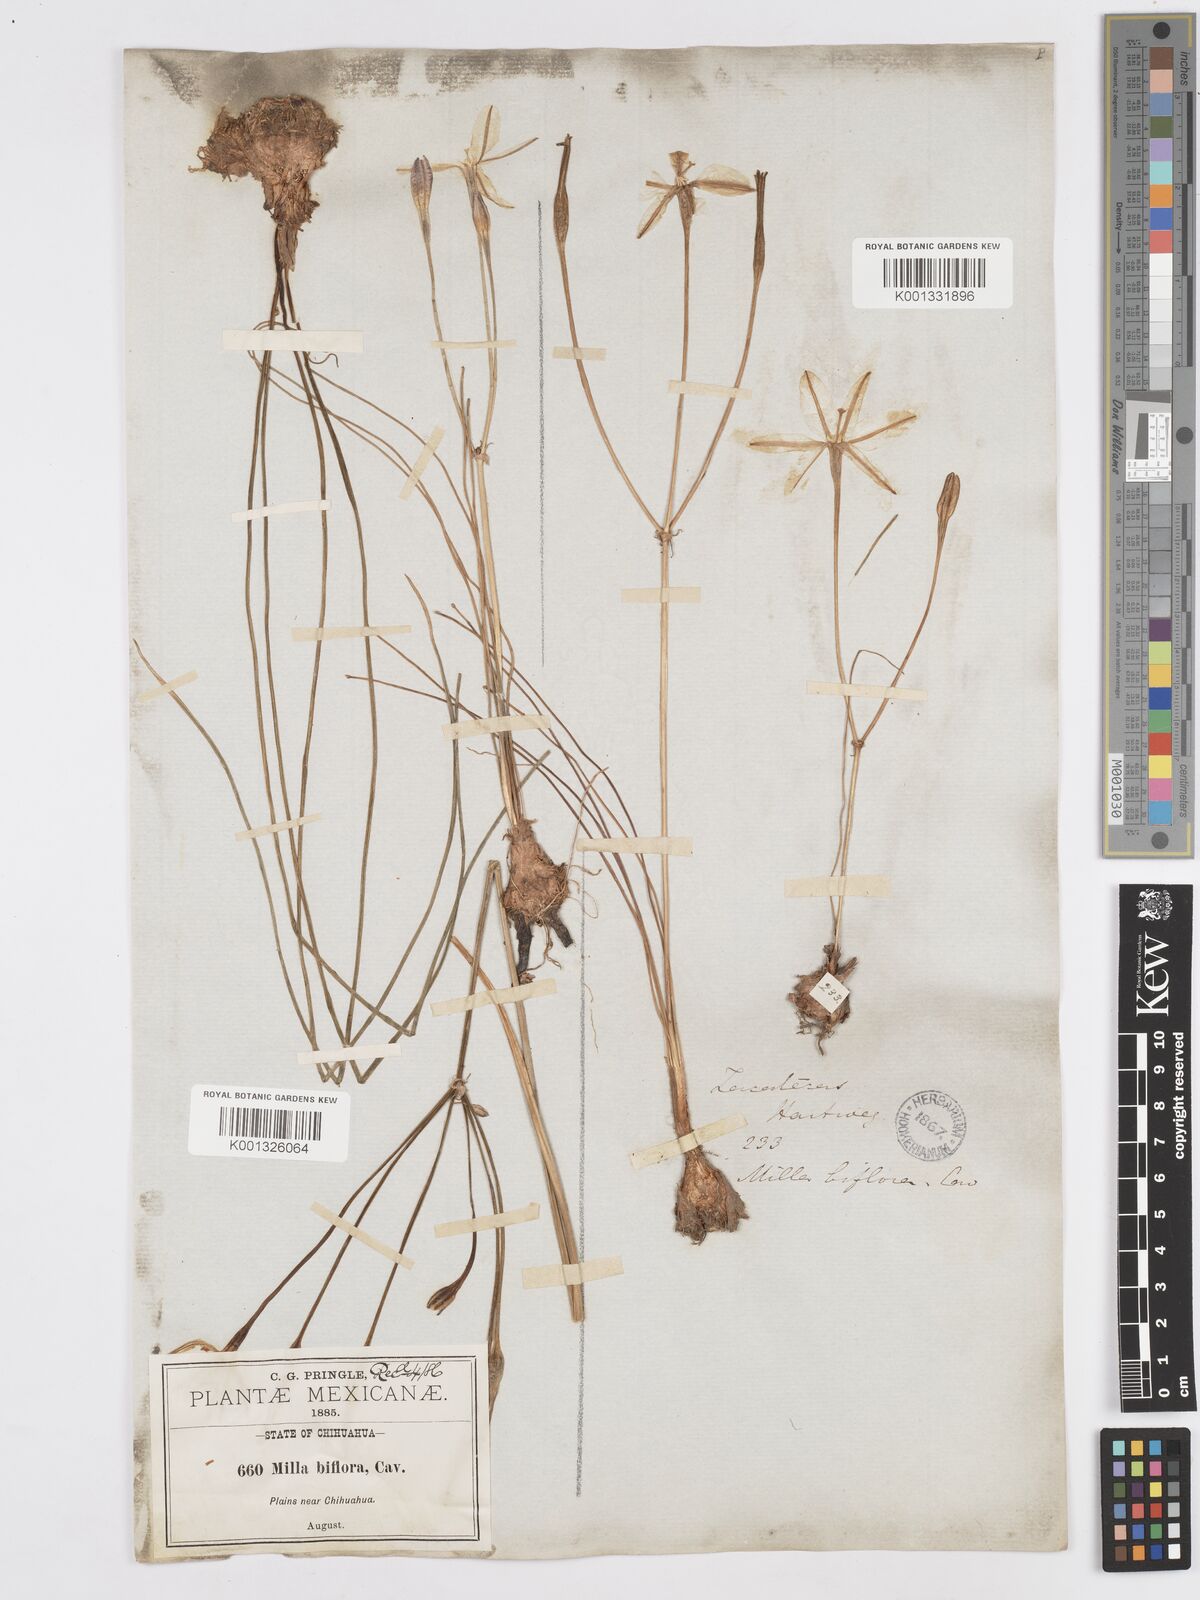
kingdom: Plantae
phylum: Tracheophyta
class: Liliopsida
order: Asparagales
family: Asparagaceae
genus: Milla
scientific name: Milla biflora
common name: Mexican-star
